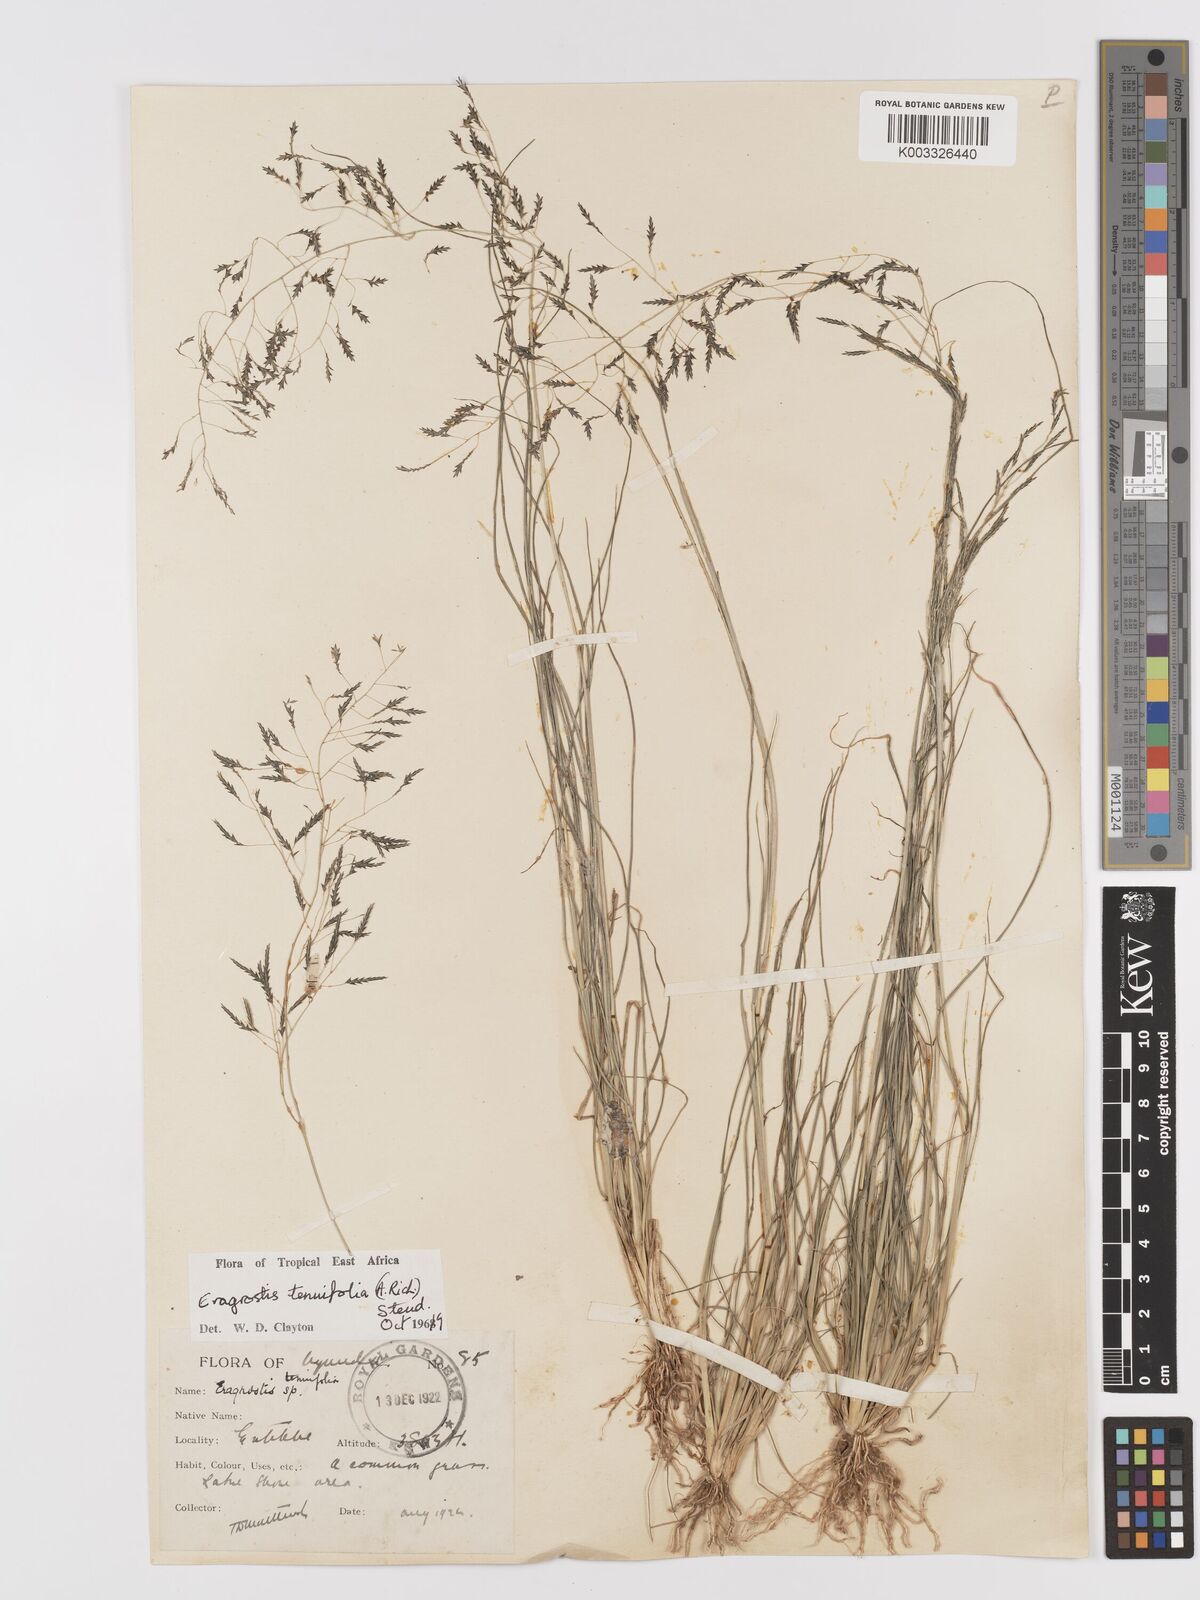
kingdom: Plantae
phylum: Tracheophyta
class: Liliopsida
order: Poales
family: Poaceae
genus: Eragrostis
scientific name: Eragrostis tenuifolia
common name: Elastic grass
